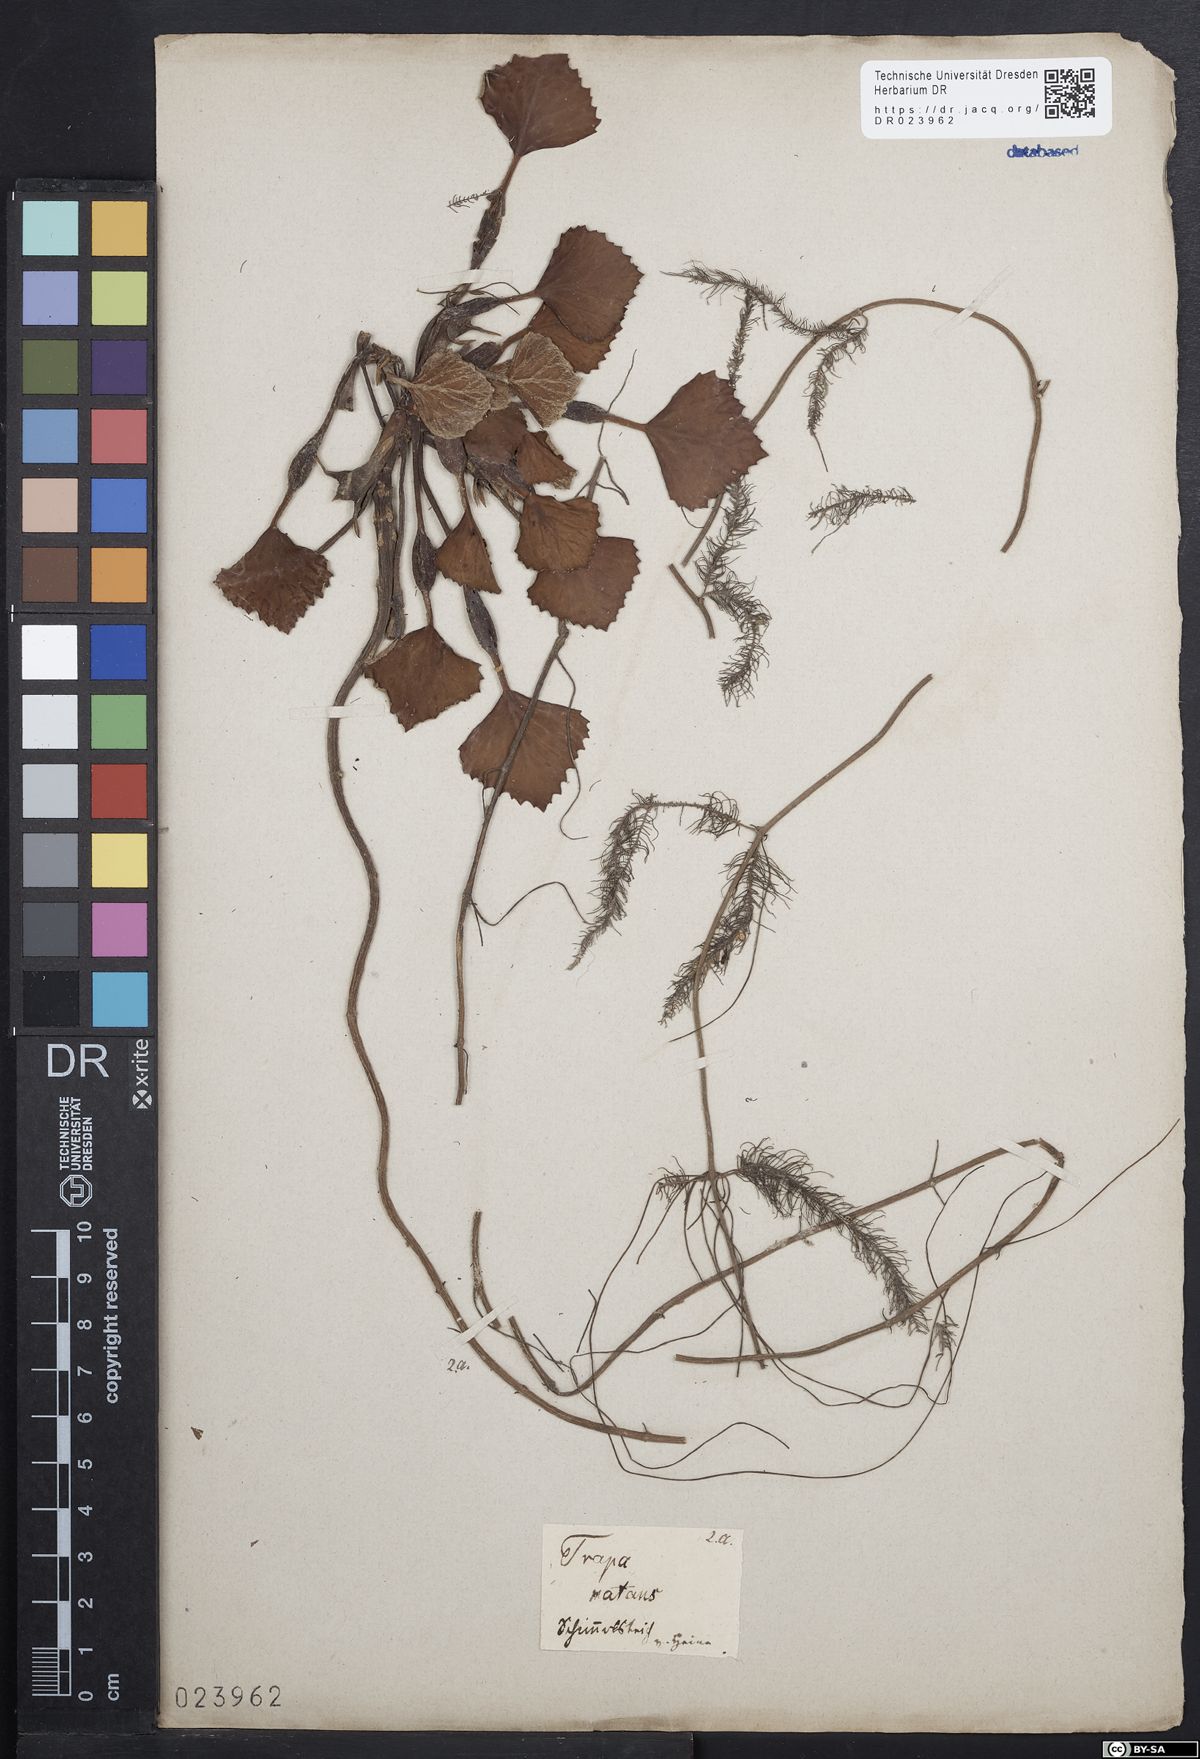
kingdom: Plantae
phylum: Tracheophyta
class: Magnoliopsida
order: Myrtales
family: Lythraceae
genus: Trapa
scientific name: Trapa natans
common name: Water chestnut
